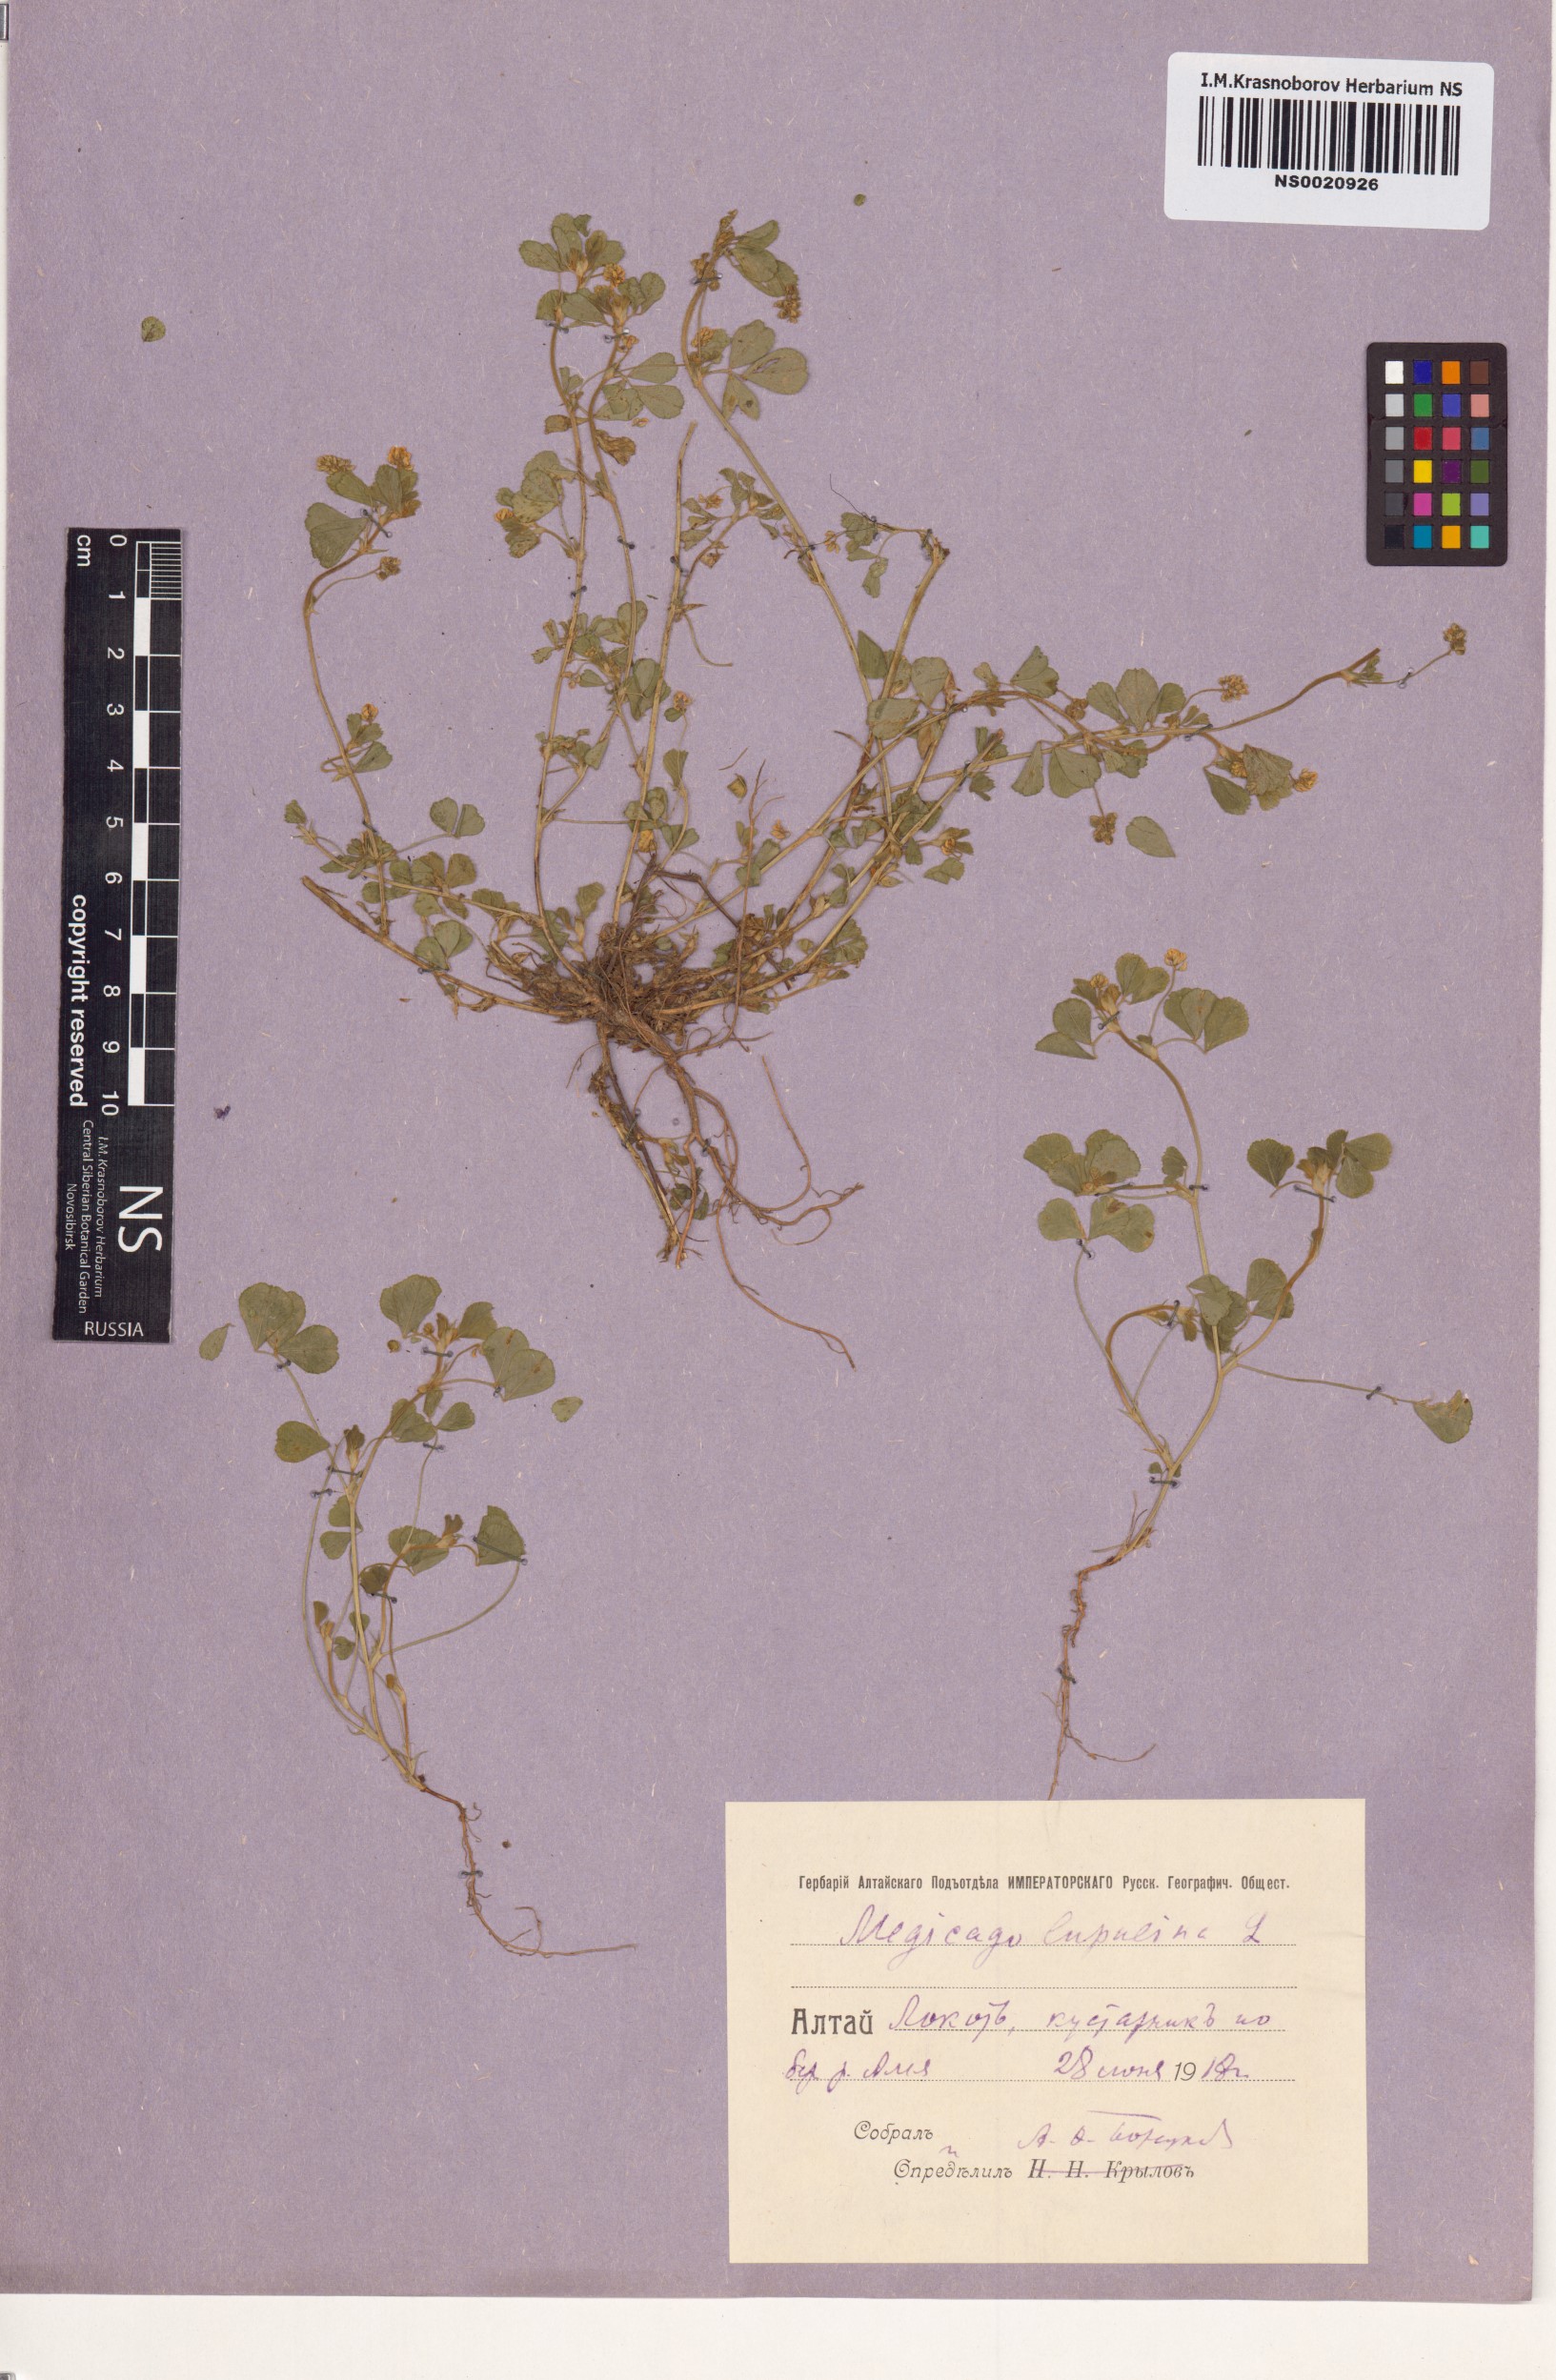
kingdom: Plantae
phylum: Tracheophyta
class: Magnoliopsida
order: Fabales
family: Fabaceae
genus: Medicago
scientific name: Medicago lupulina
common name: Black medick
